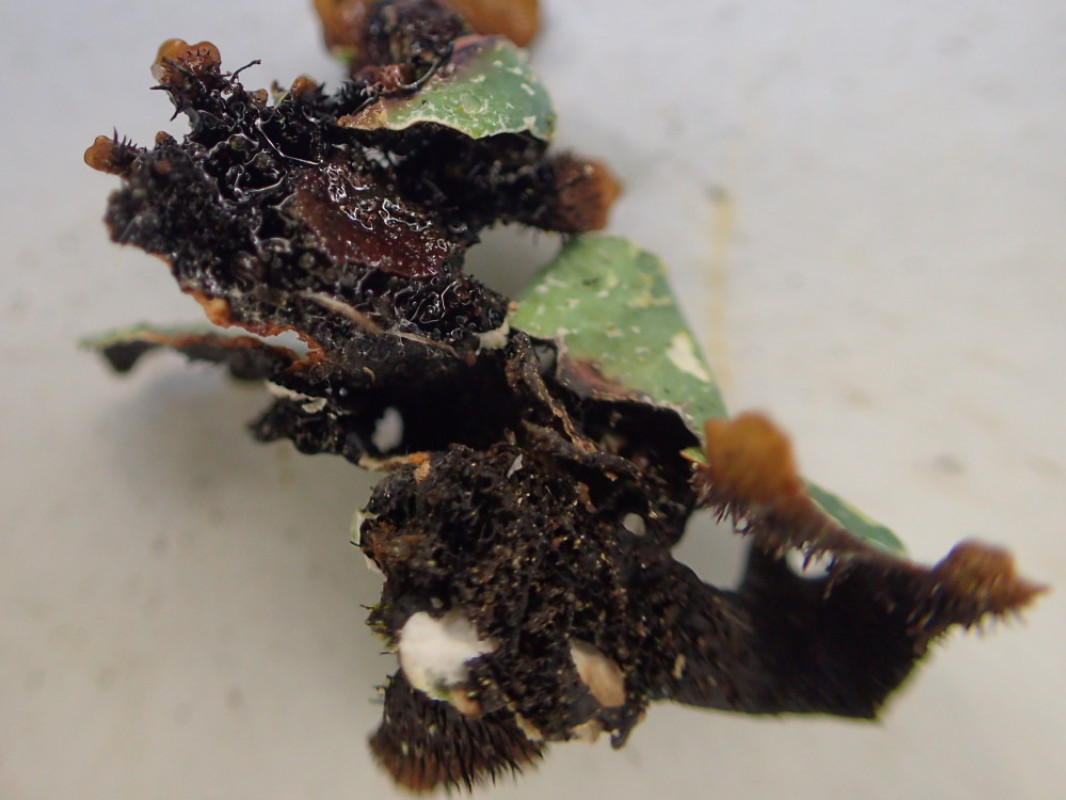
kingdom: Fungi
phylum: Ascomycota
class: Lecanoromycetes
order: Lecanorales
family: Parmeliaceae
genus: Parmelia
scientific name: Parmelia sulcata
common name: rynket skållav
